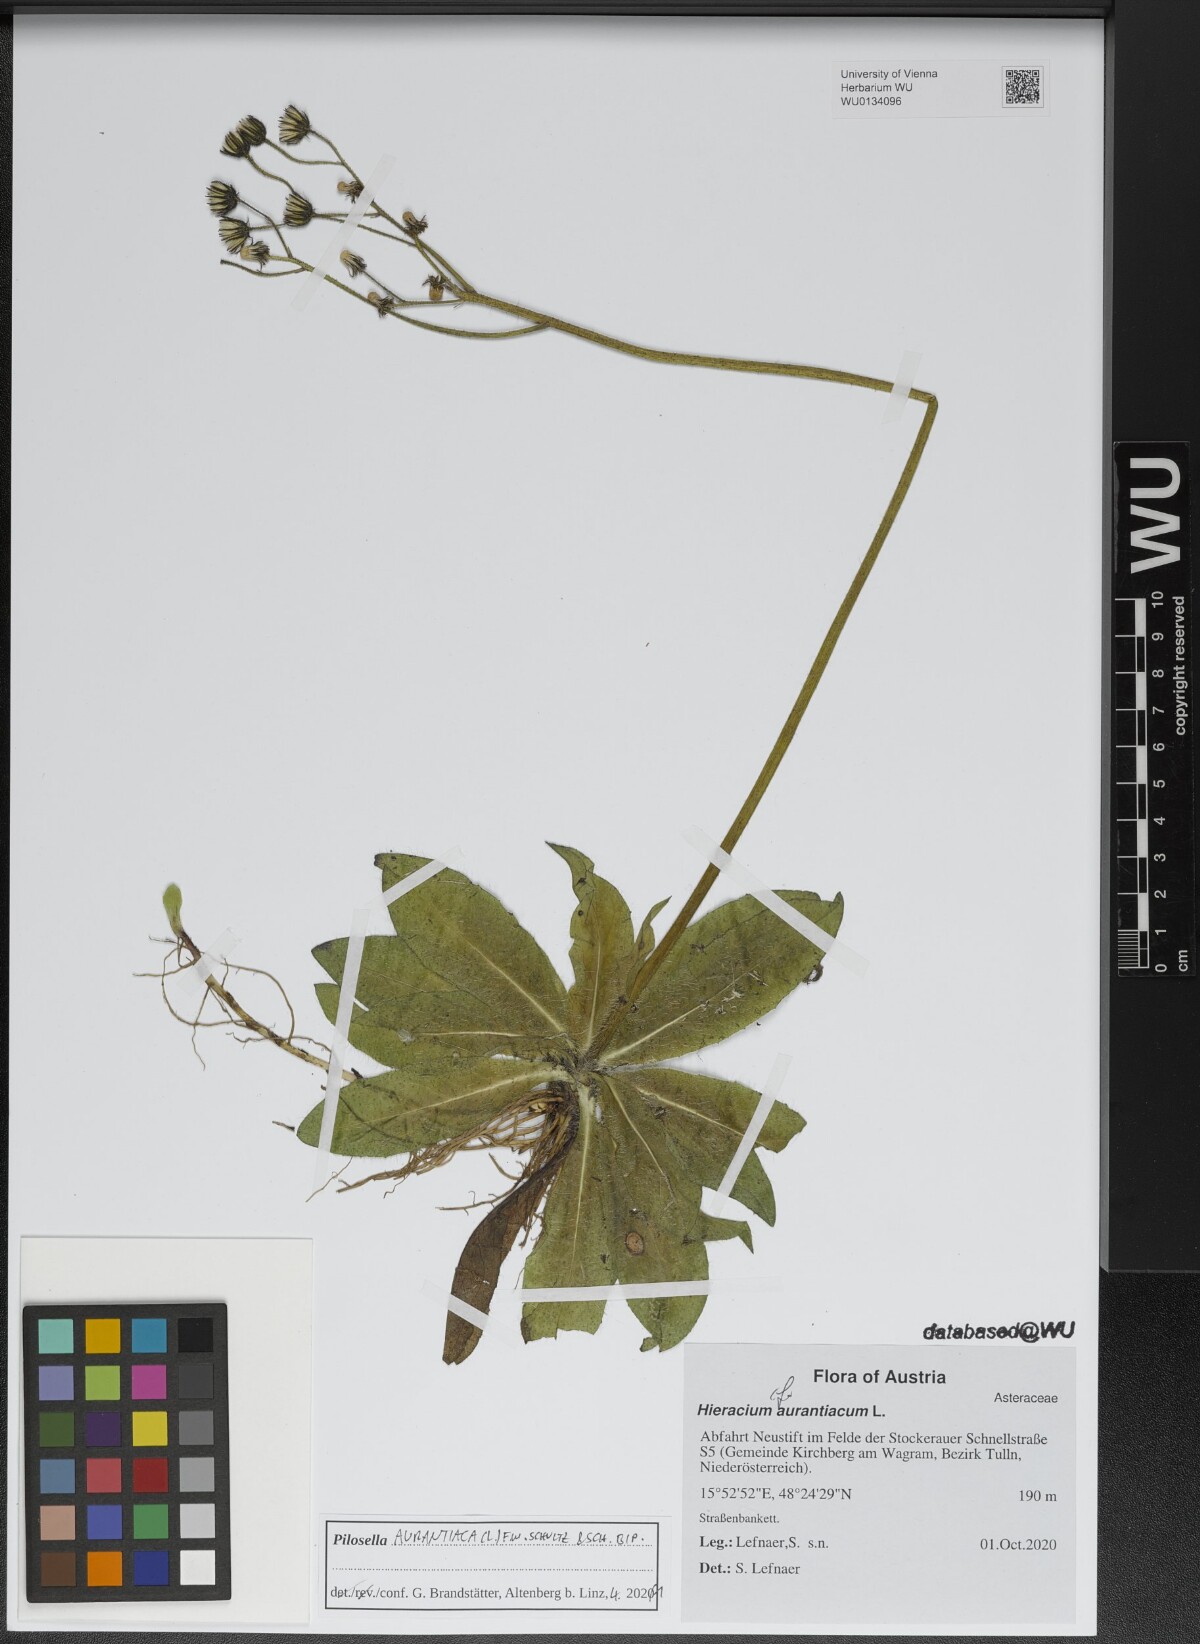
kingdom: Plantae
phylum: Tracheophyta
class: Magnoliopsida
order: Asterales
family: Asteraceae
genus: Pilosella
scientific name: Pilosella aurantiaca
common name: Fox-and-cubs
